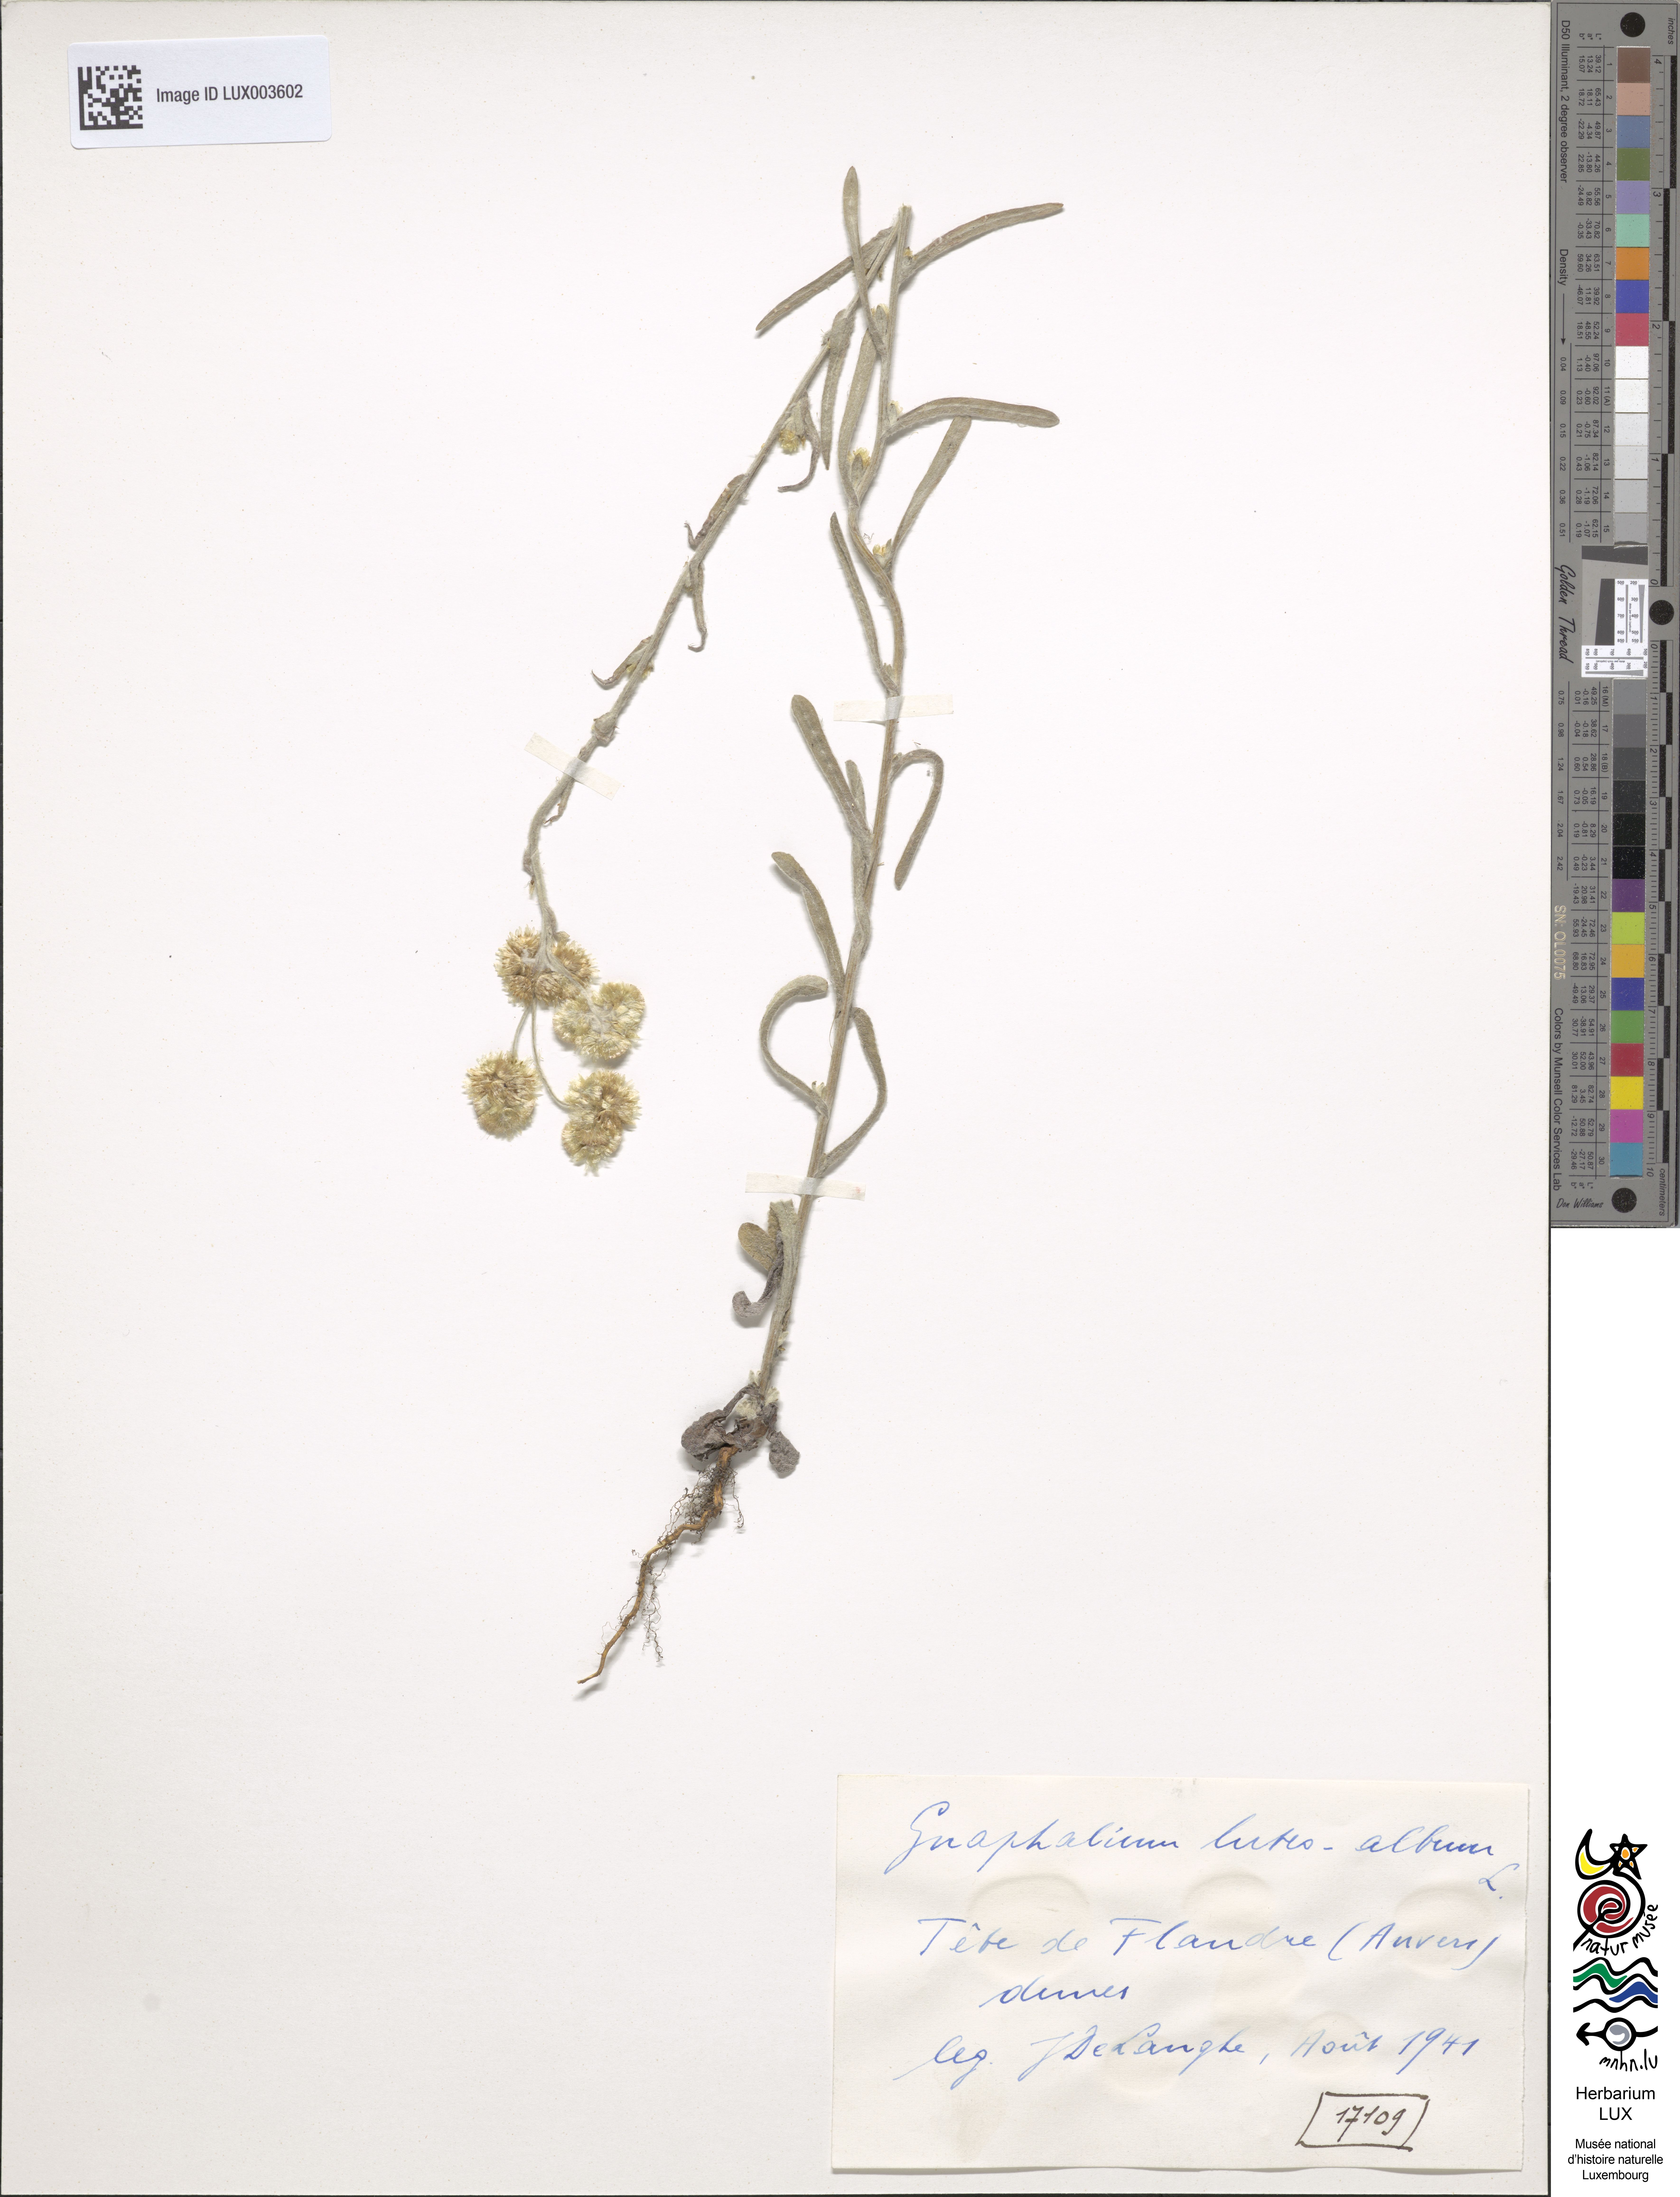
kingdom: Plantae
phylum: Tracheophyta
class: Magnoliopsida
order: Asterales
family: Asteraceae
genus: Helichrysum
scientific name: Helichrysum luteoalbum
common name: Daisy
